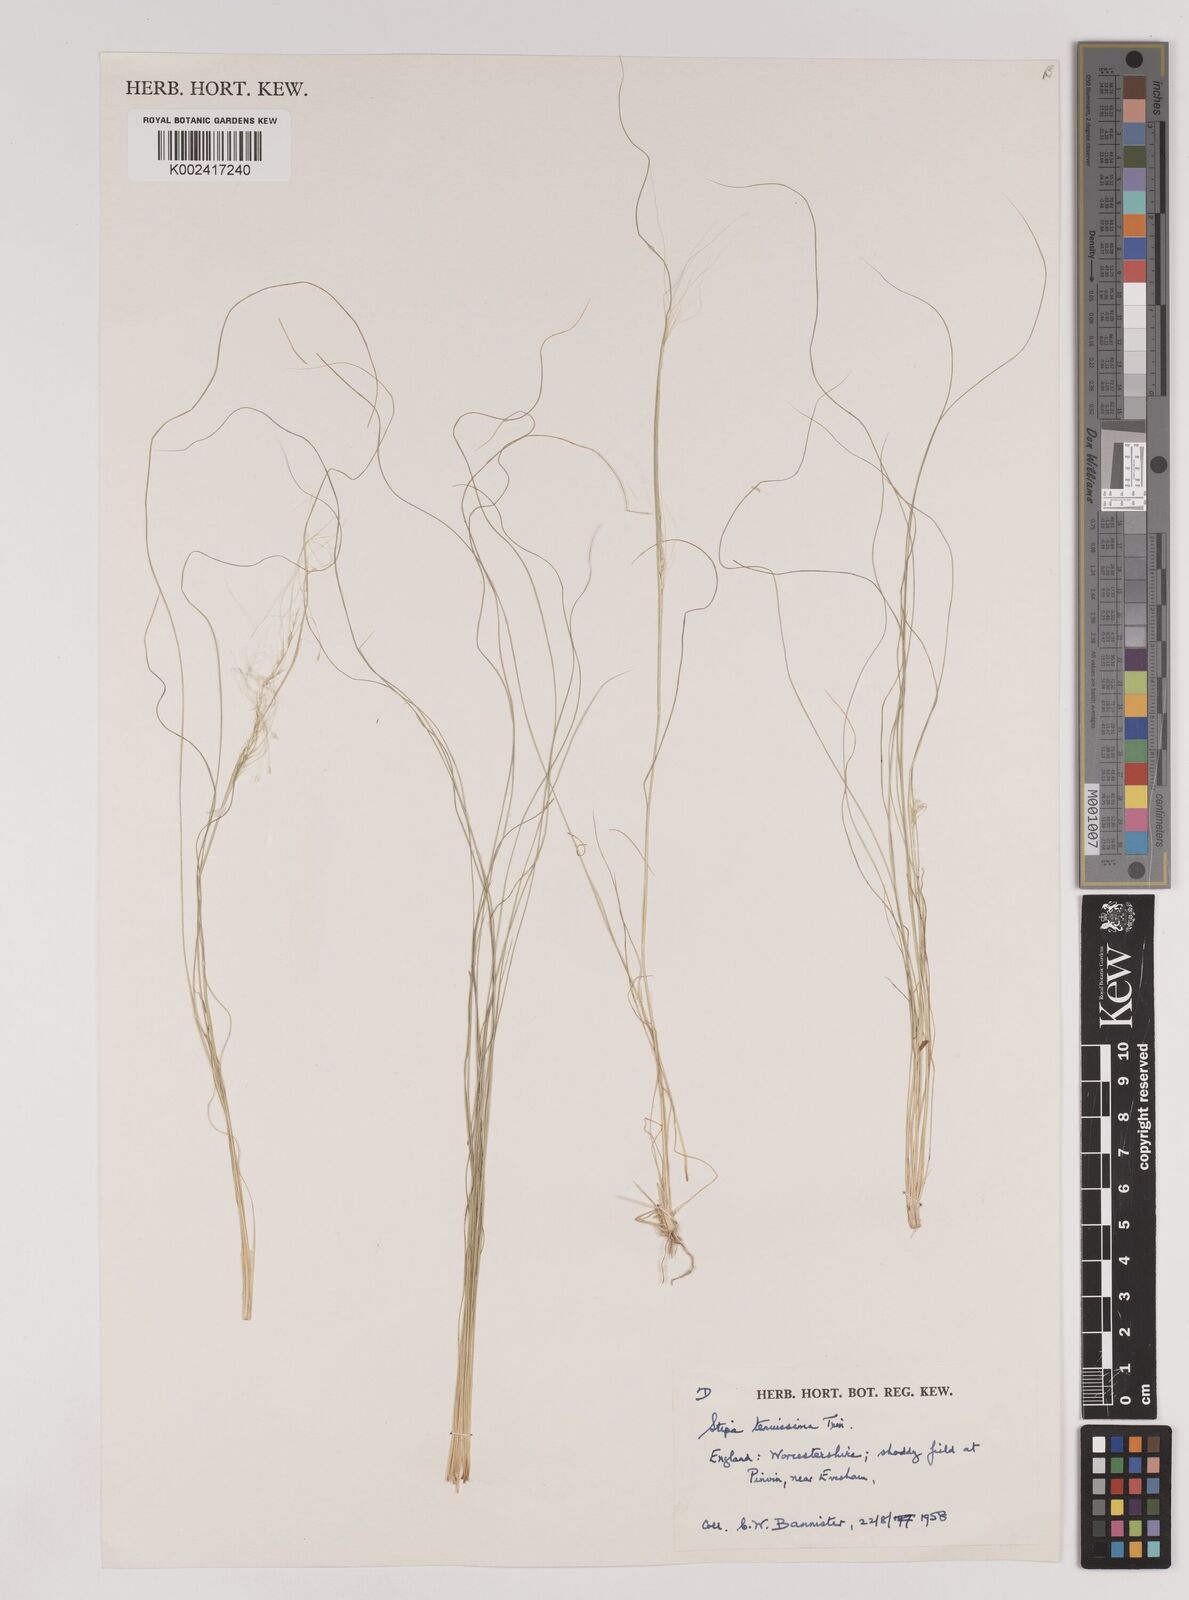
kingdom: Plantae
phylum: Tracheophyta
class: Liliopsida
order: Poales
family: Poaceae
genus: Nassella
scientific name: Nassella tenuissima
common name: Argentine needlegrass
